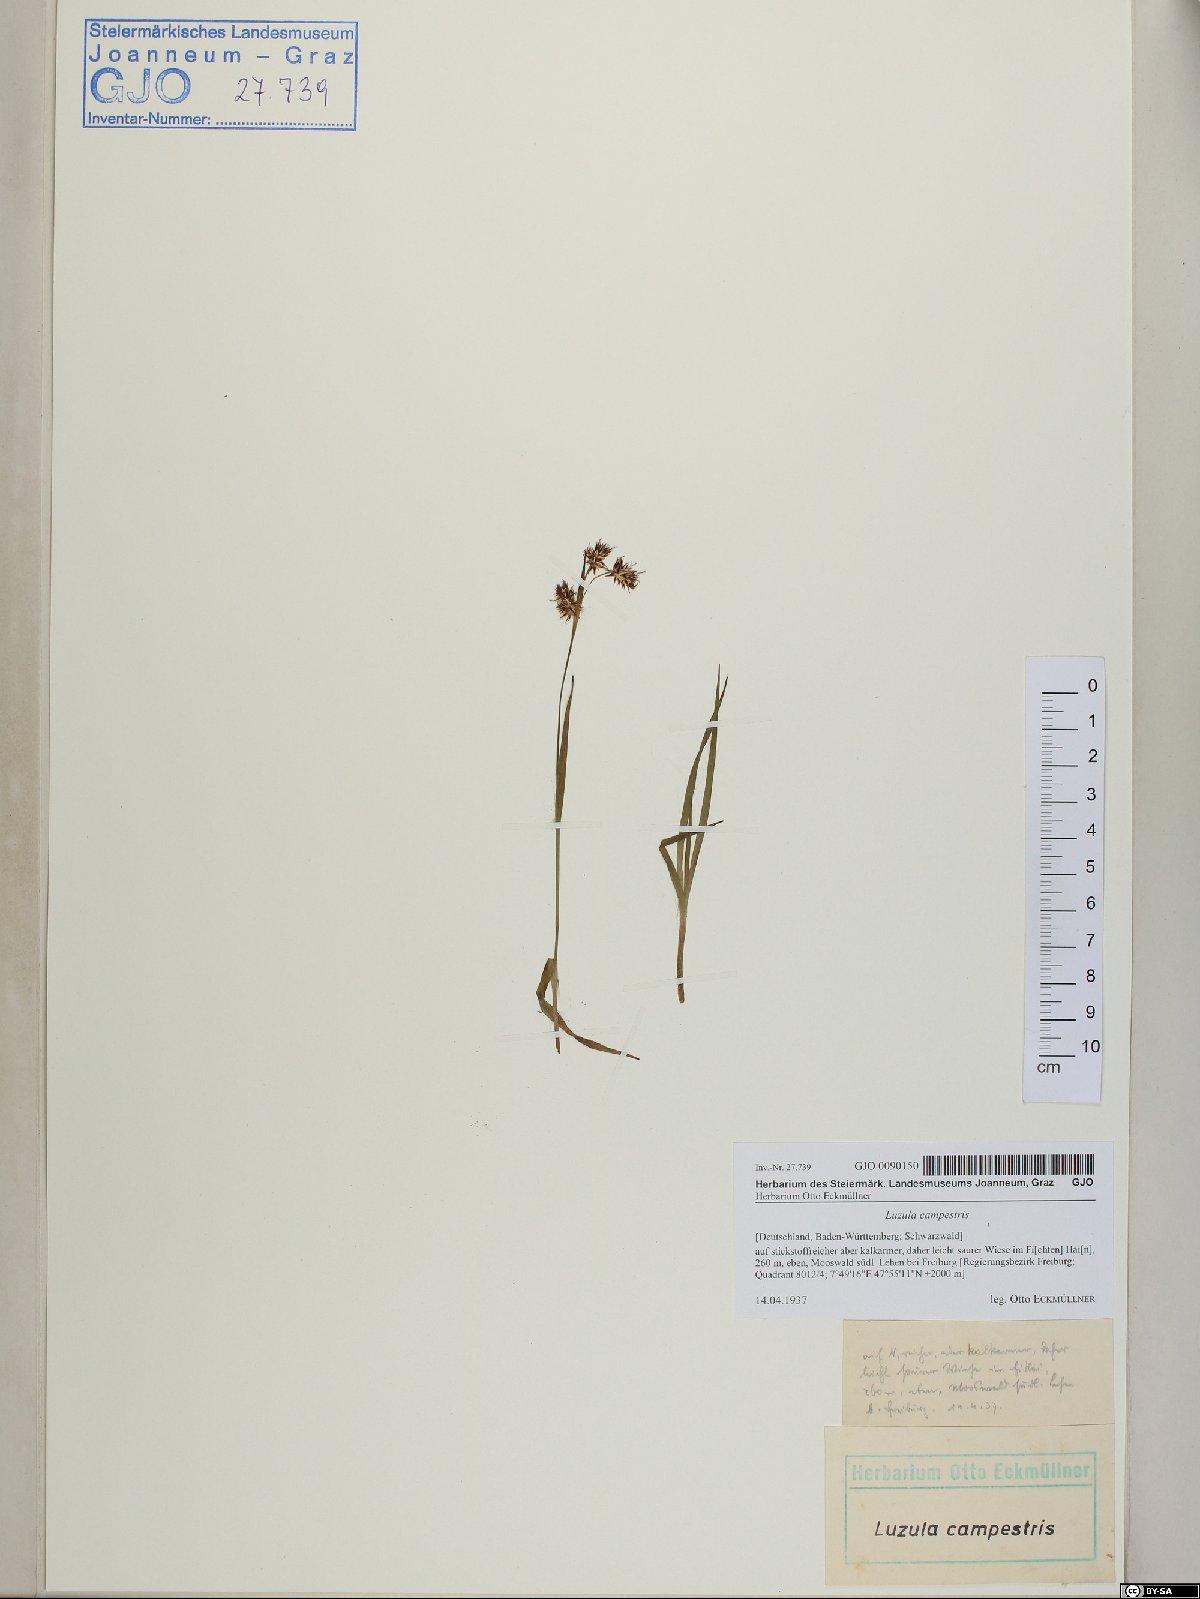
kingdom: Plantae
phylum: Tracheophyta
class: Liliopsida
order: Poales
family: Juncaceae
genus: Luzula
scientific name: Luzula campestris
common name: Field wood-rush
